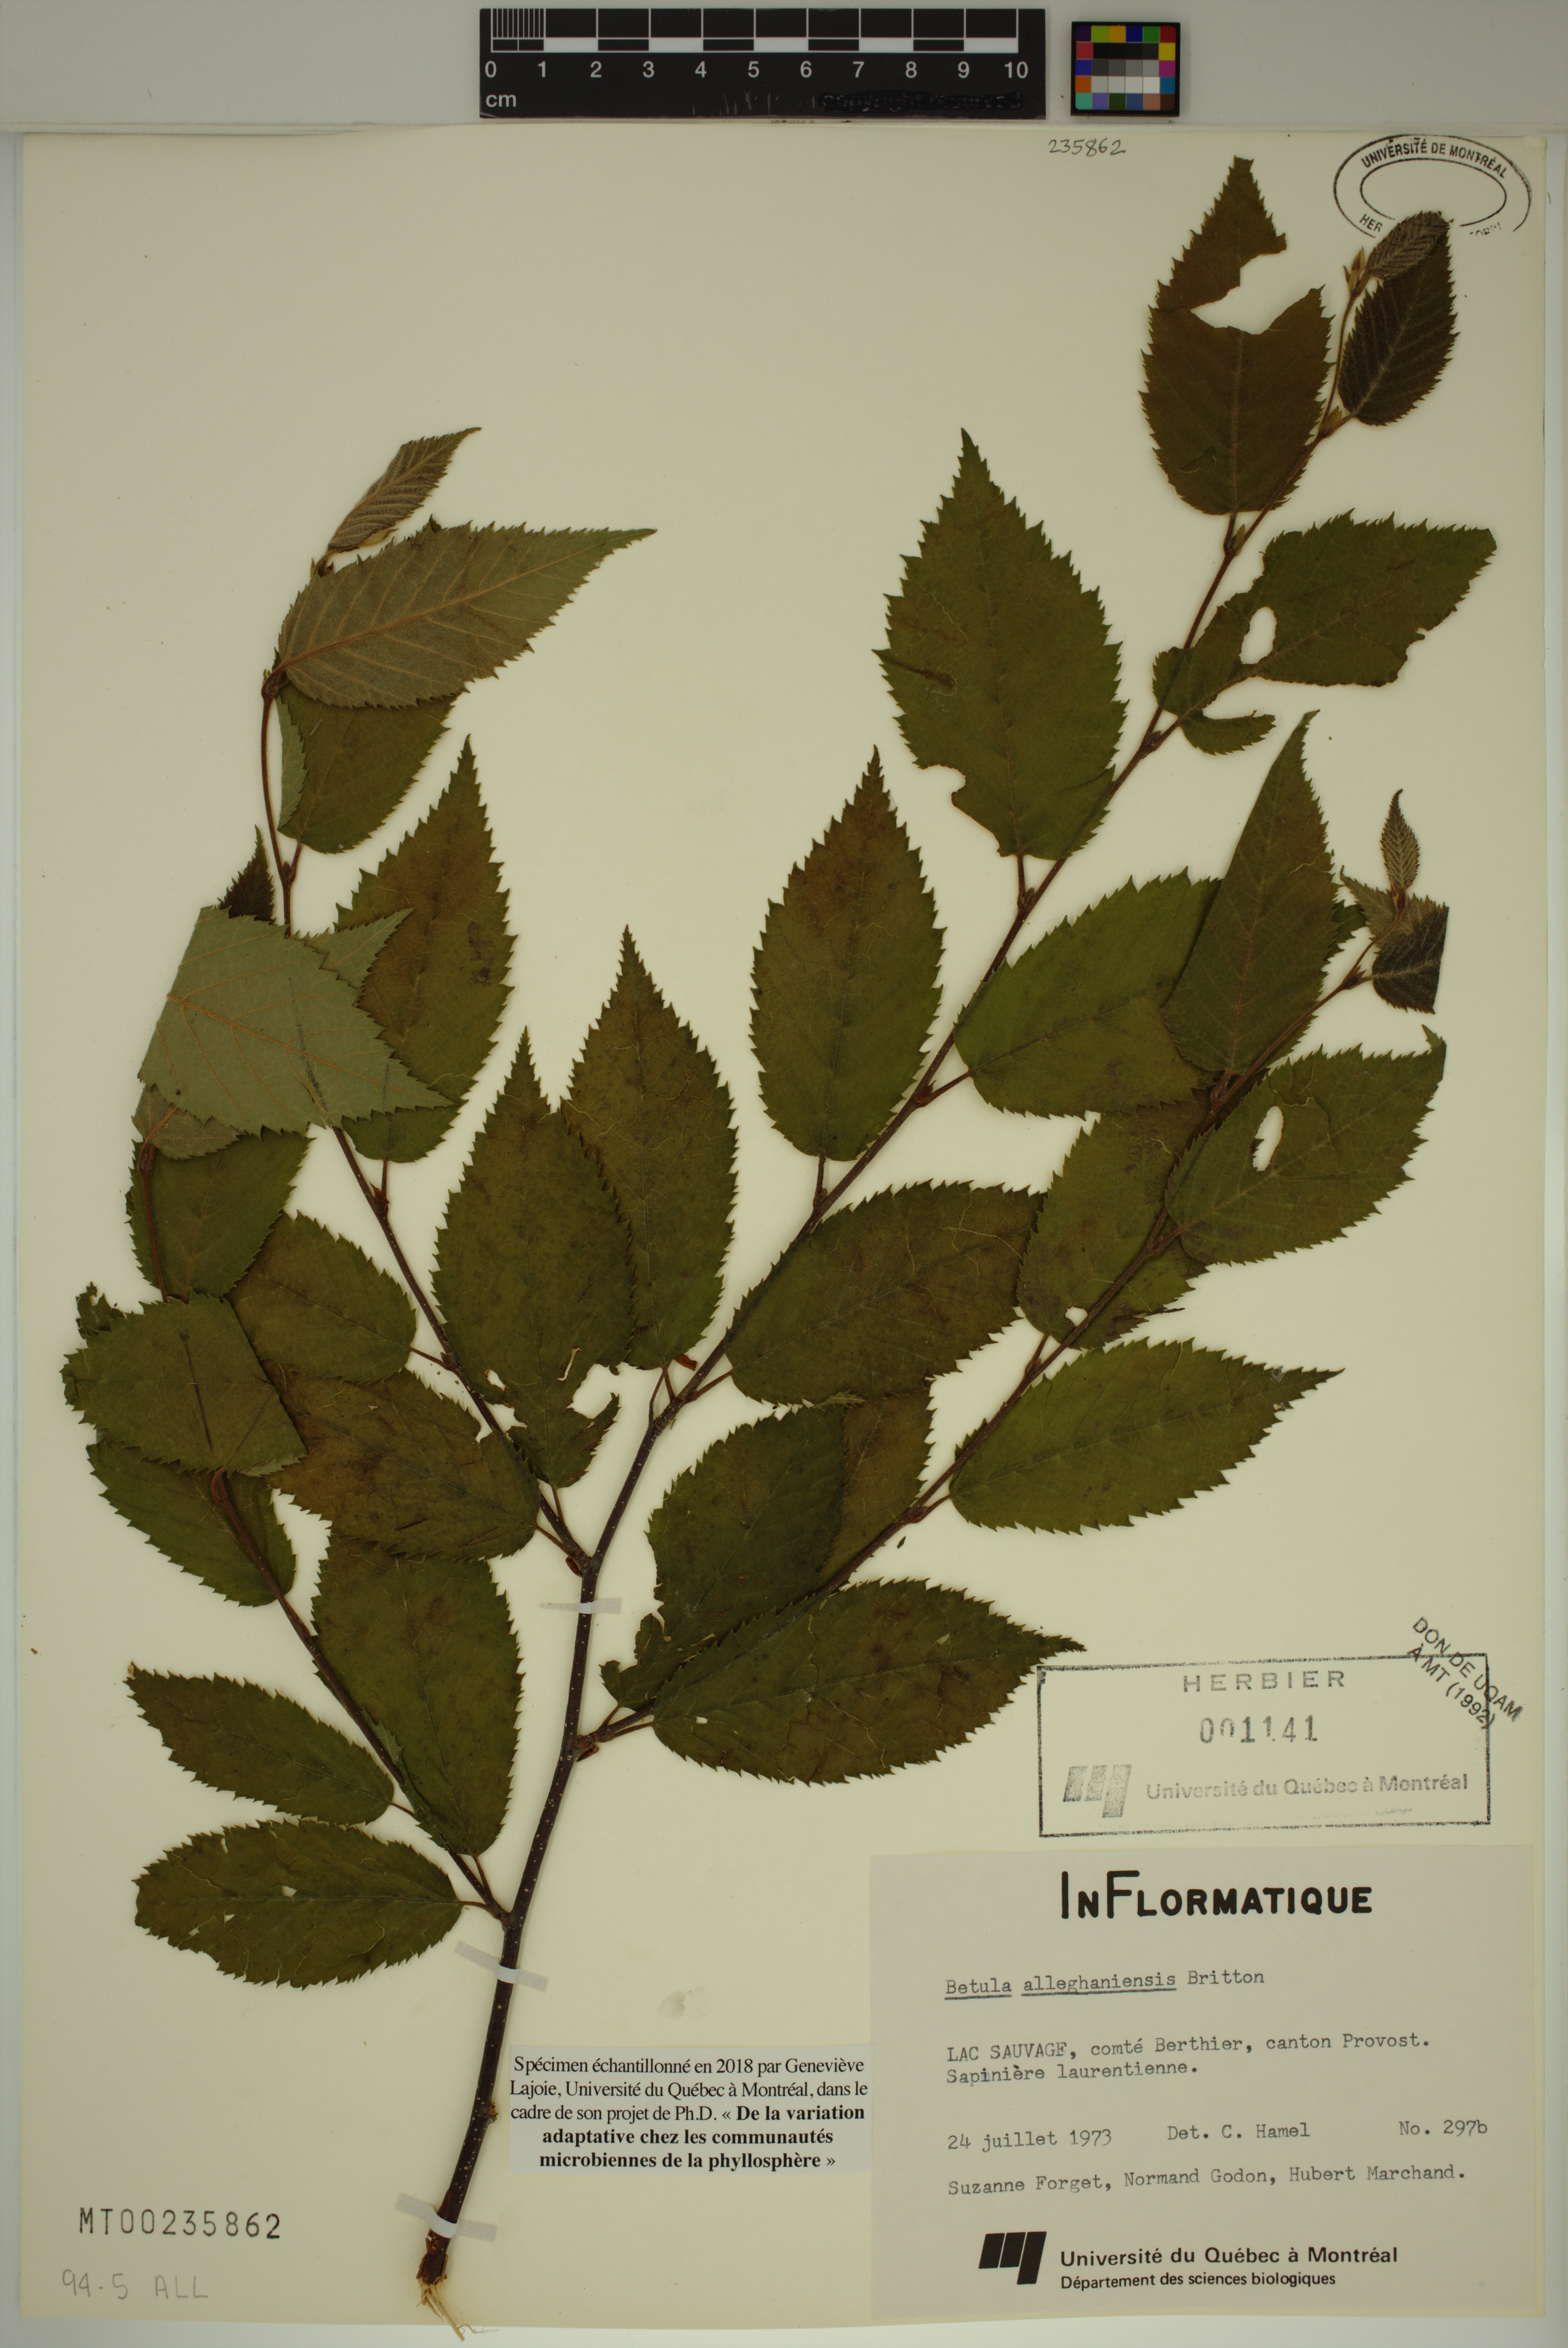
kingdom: Plantae
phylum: Tracheophyta
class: Magnoliopsida
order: Fagales
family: Betulaceae
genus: Betula
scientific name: Betula alleghaniensis
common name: Yellow birch
